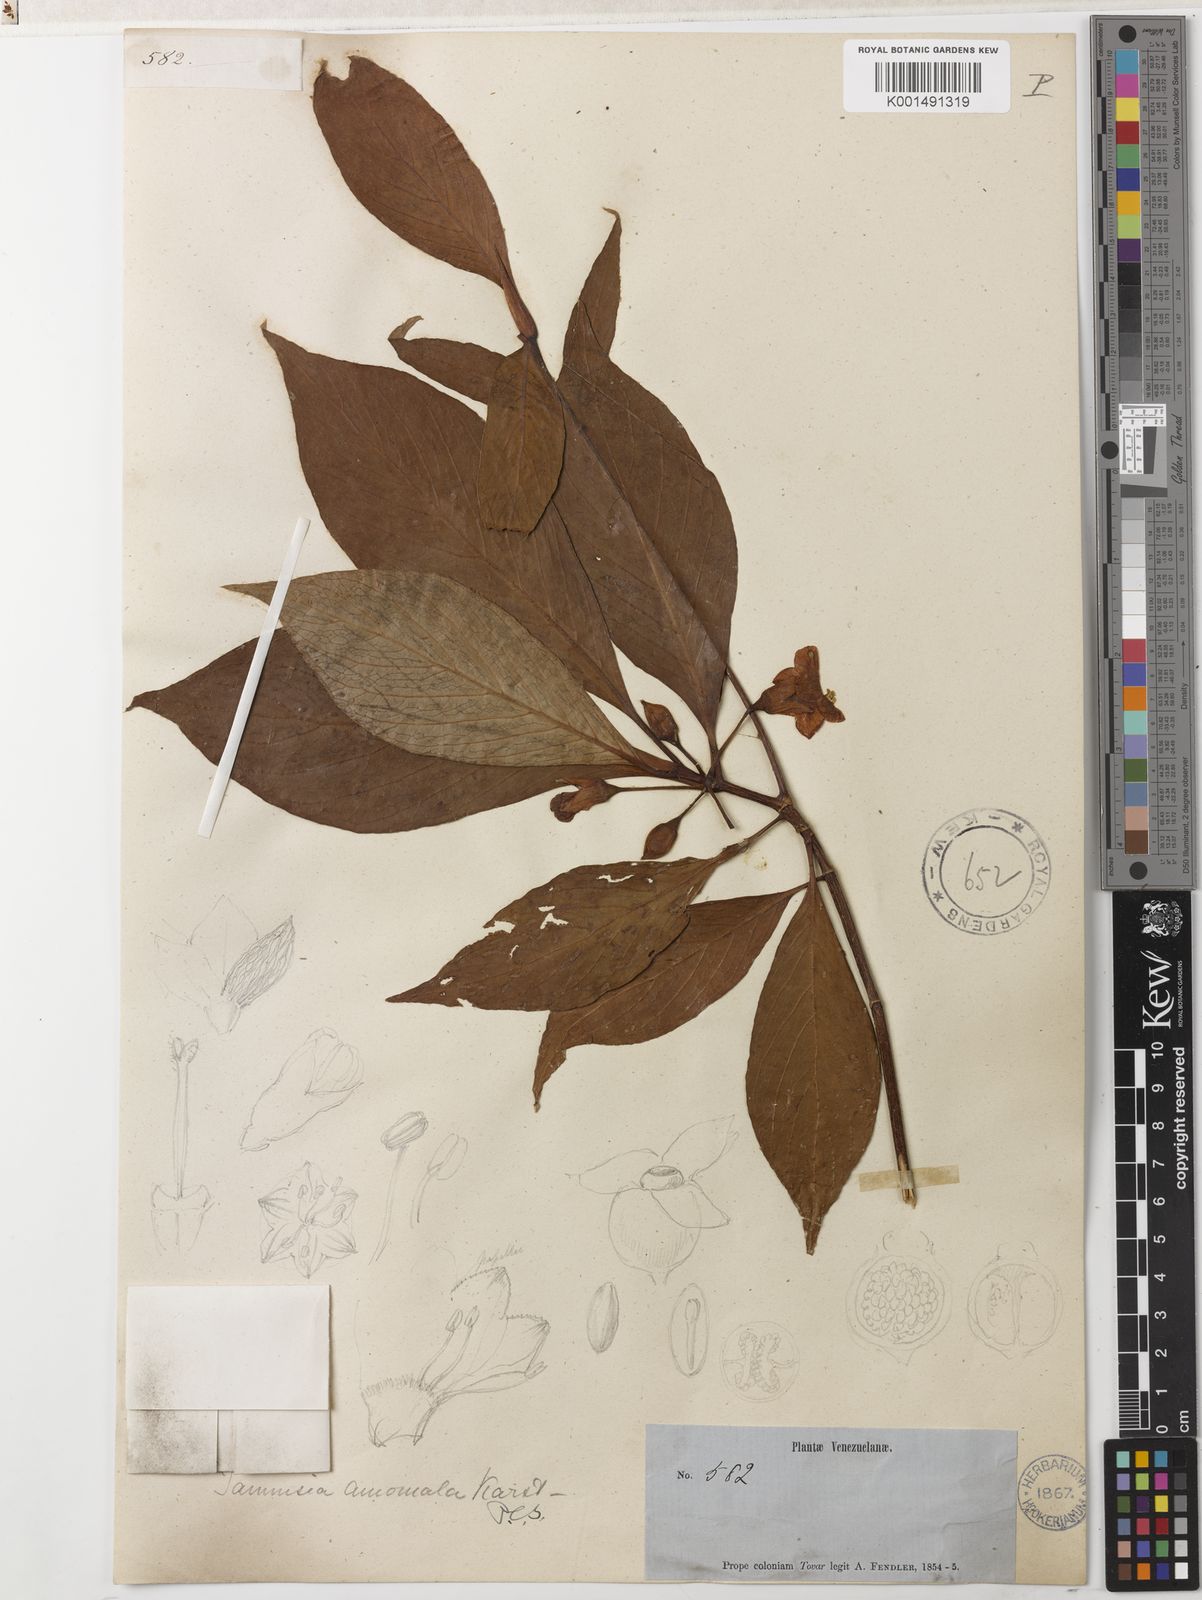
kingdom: Plantae
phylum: Tracheophyta
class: Magnoliopsida
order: Gentianales
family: Rubiaceae
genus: Tammsia
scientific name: Tammsia anomala
